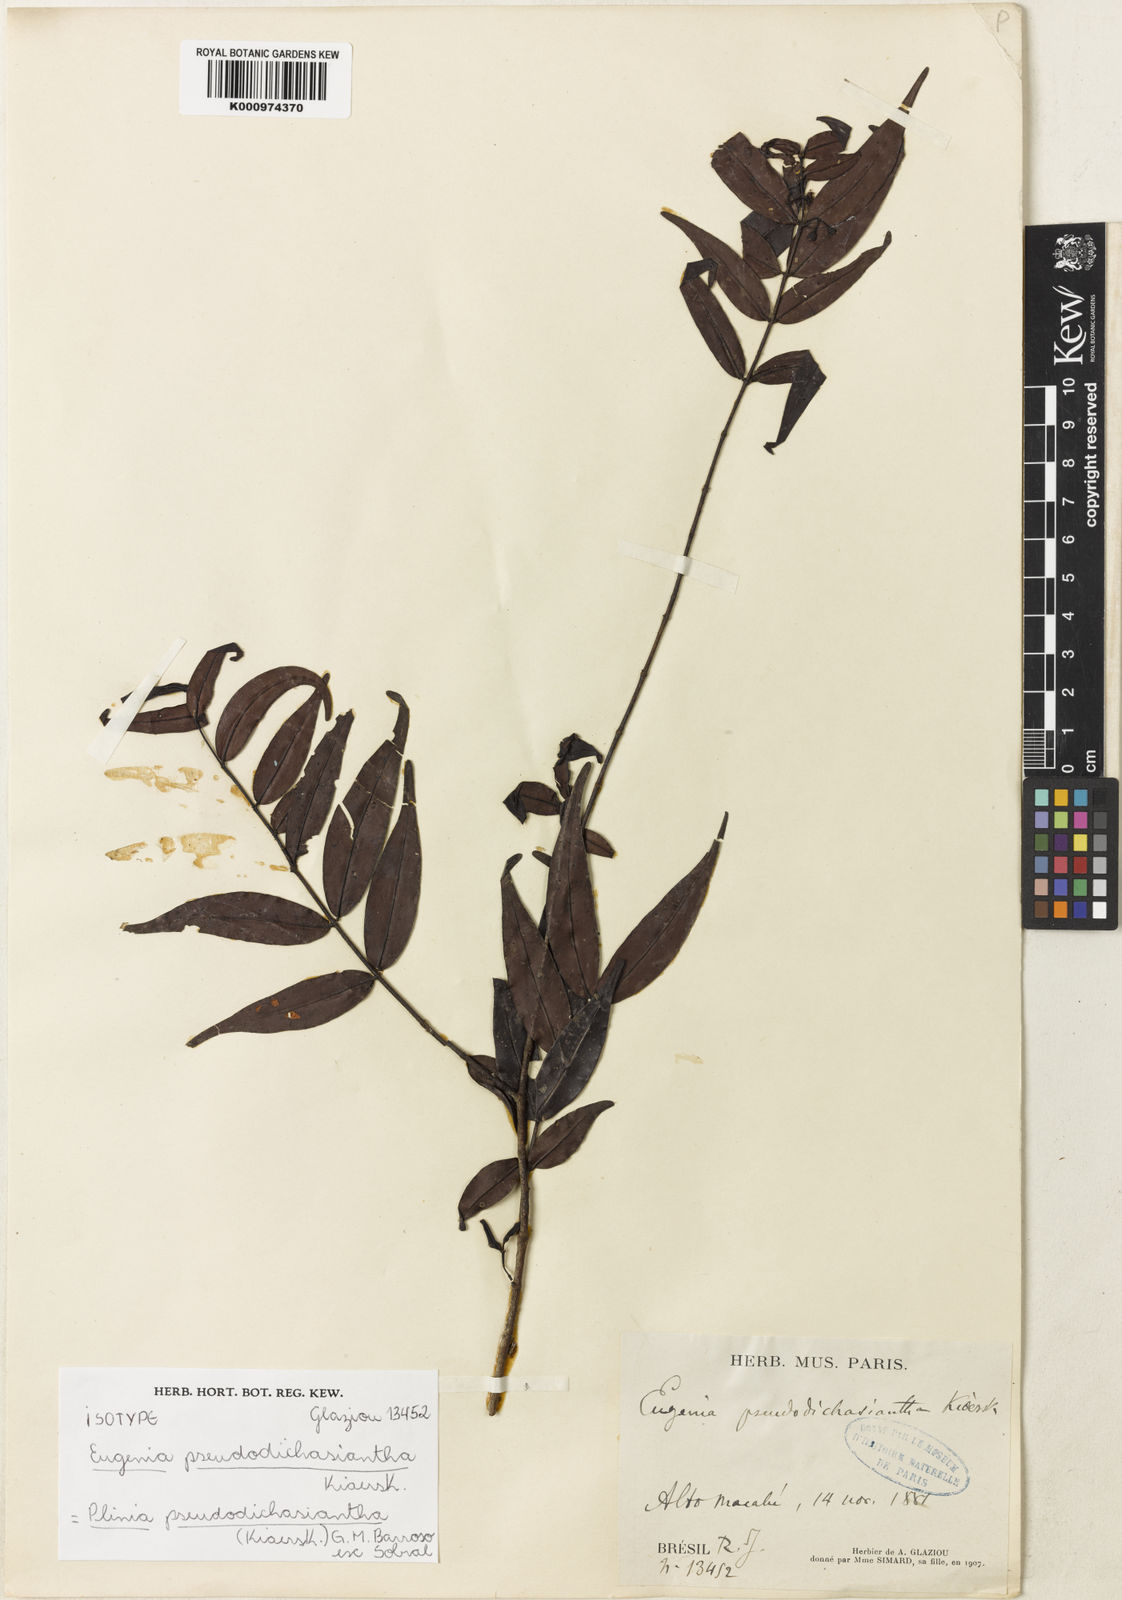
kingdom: Plantae
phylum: Tracheophyta
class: Magnoliopsida
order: Myrtales
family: Myrtaceae
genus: Plinia
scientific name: Plinia pseudodichasiantha
